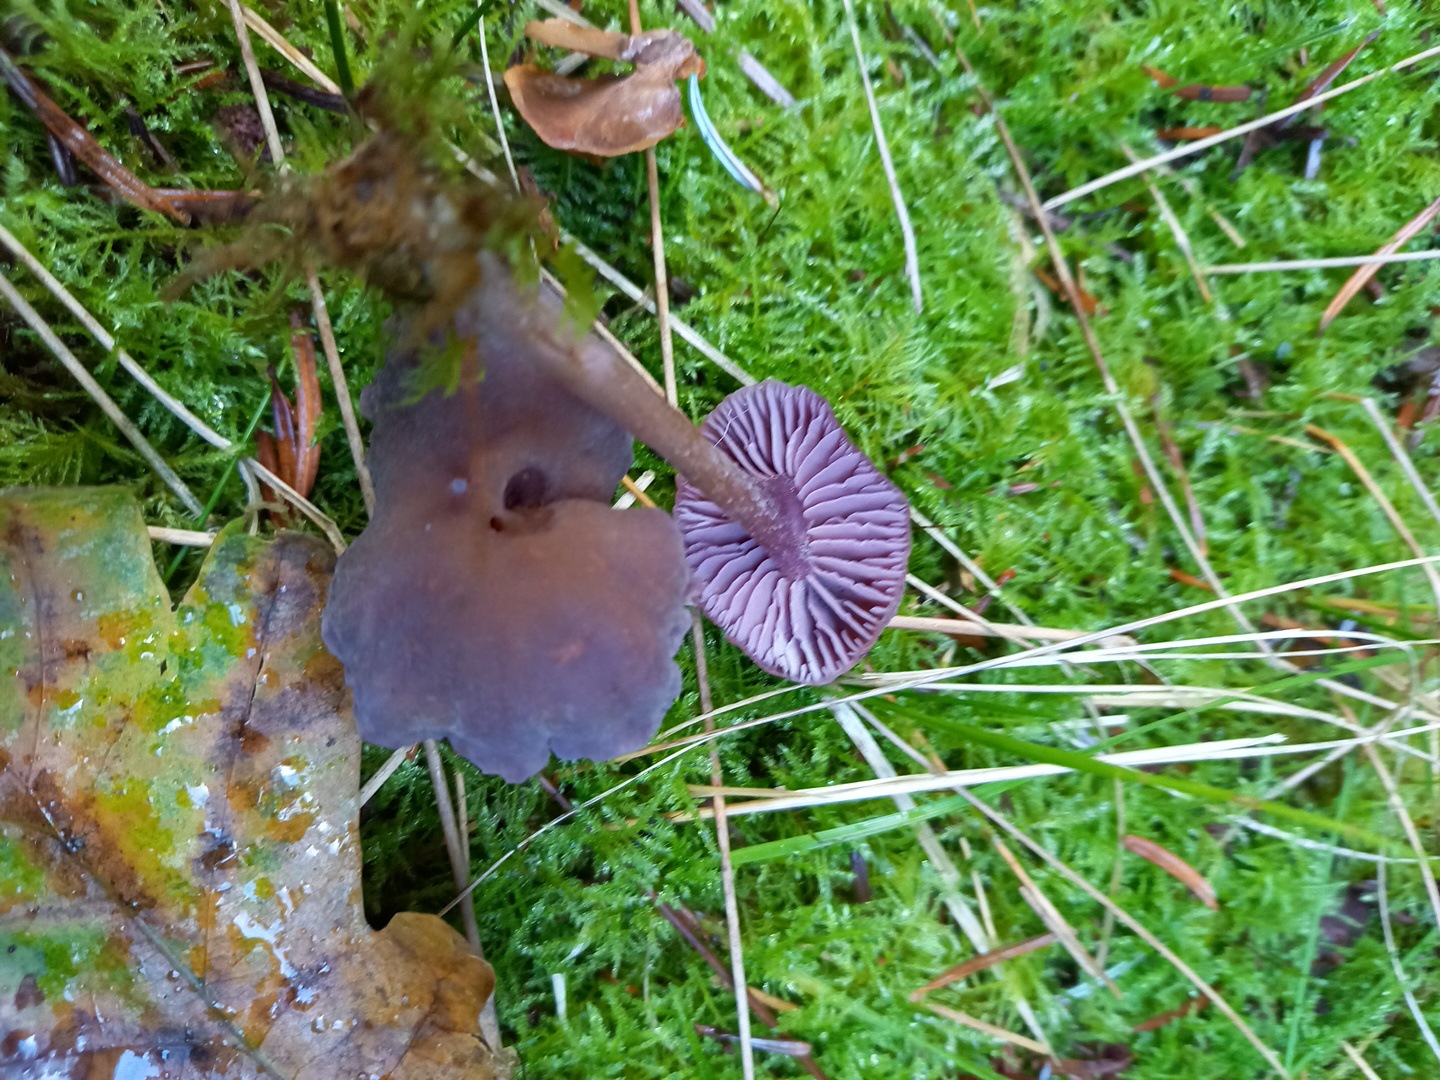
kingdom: Fungi
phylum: Basidiomycota
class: Agaricomycetes
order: Agaricales
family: Hydnangiaceae
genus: Laccaria
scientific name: Laccaria amethystina
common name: violet ametysthat
